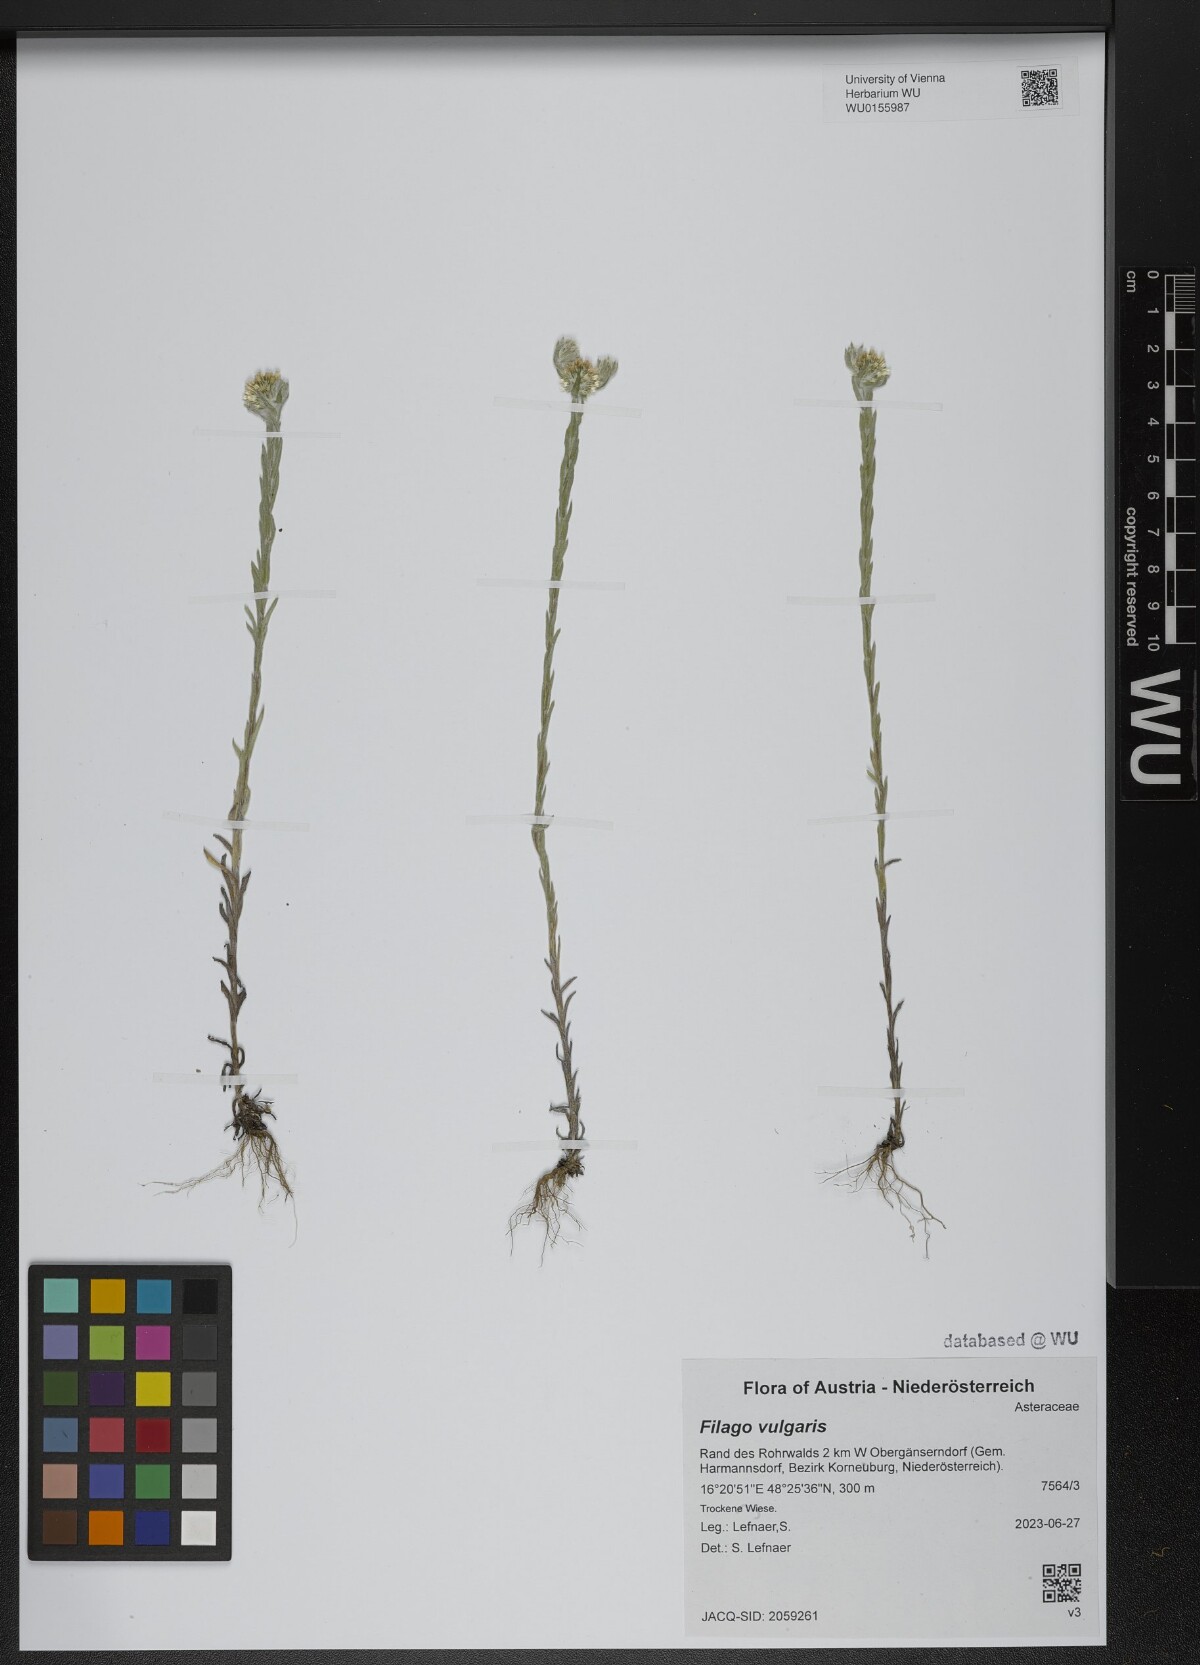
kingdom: Plantae
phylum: Tracheophyta
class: Magnoliopsida
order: Asterales
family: Asteraceae
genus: Filago
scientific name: Filago germanica
